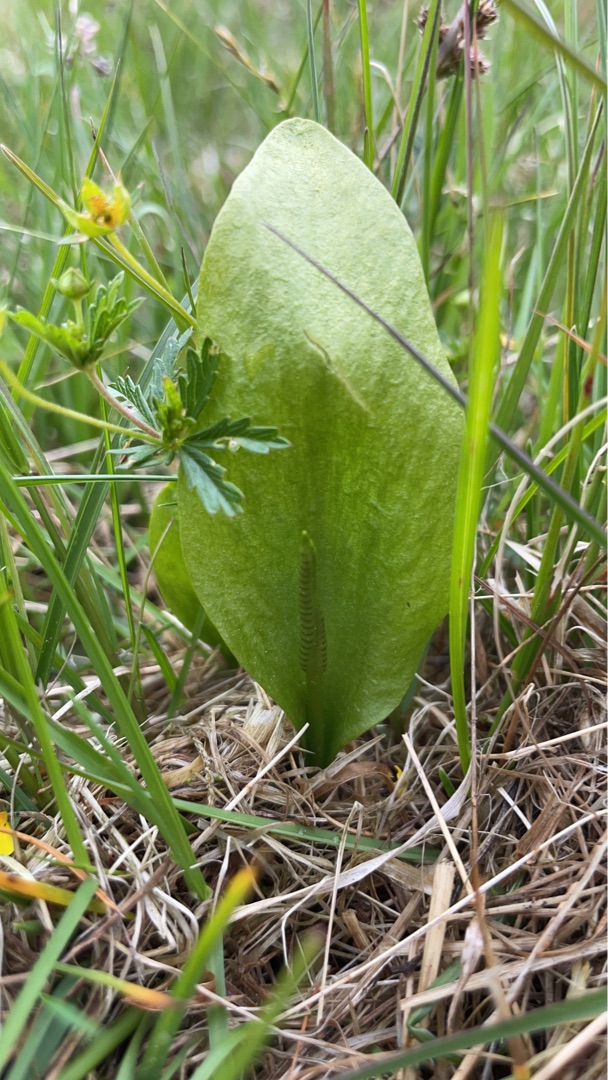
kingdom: Plantae
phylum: Tracheophyta
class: Polypodiopsida
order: Ophioglossales
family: Ophioglossaceae
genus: Ophioglossum
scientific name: Ophioglossum vulgatum
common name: Slangetunge
